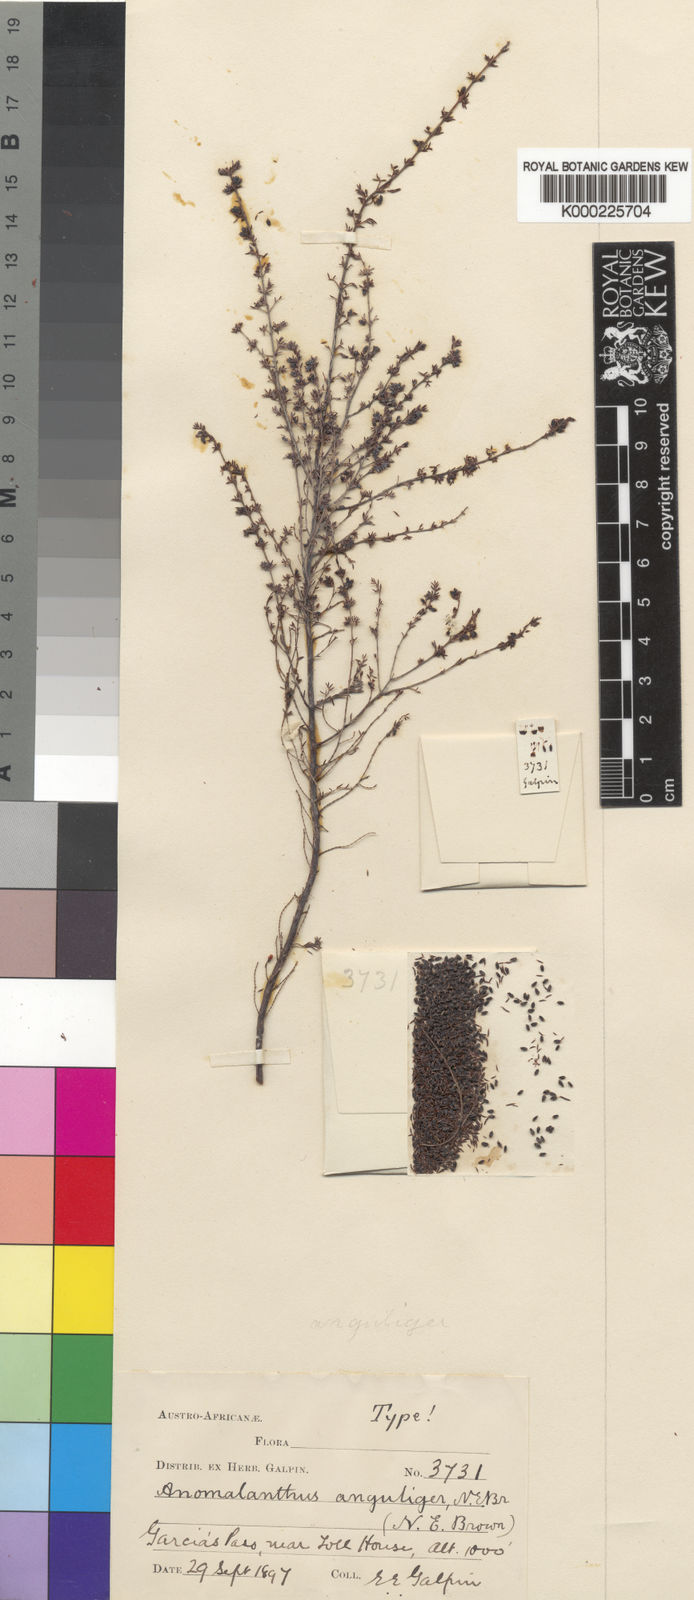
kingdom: Plantae
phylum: Tracheophyta
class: Magnoliopsida
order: Ericales
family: Ericaceae
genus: Erica
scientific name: Erica anguliger
